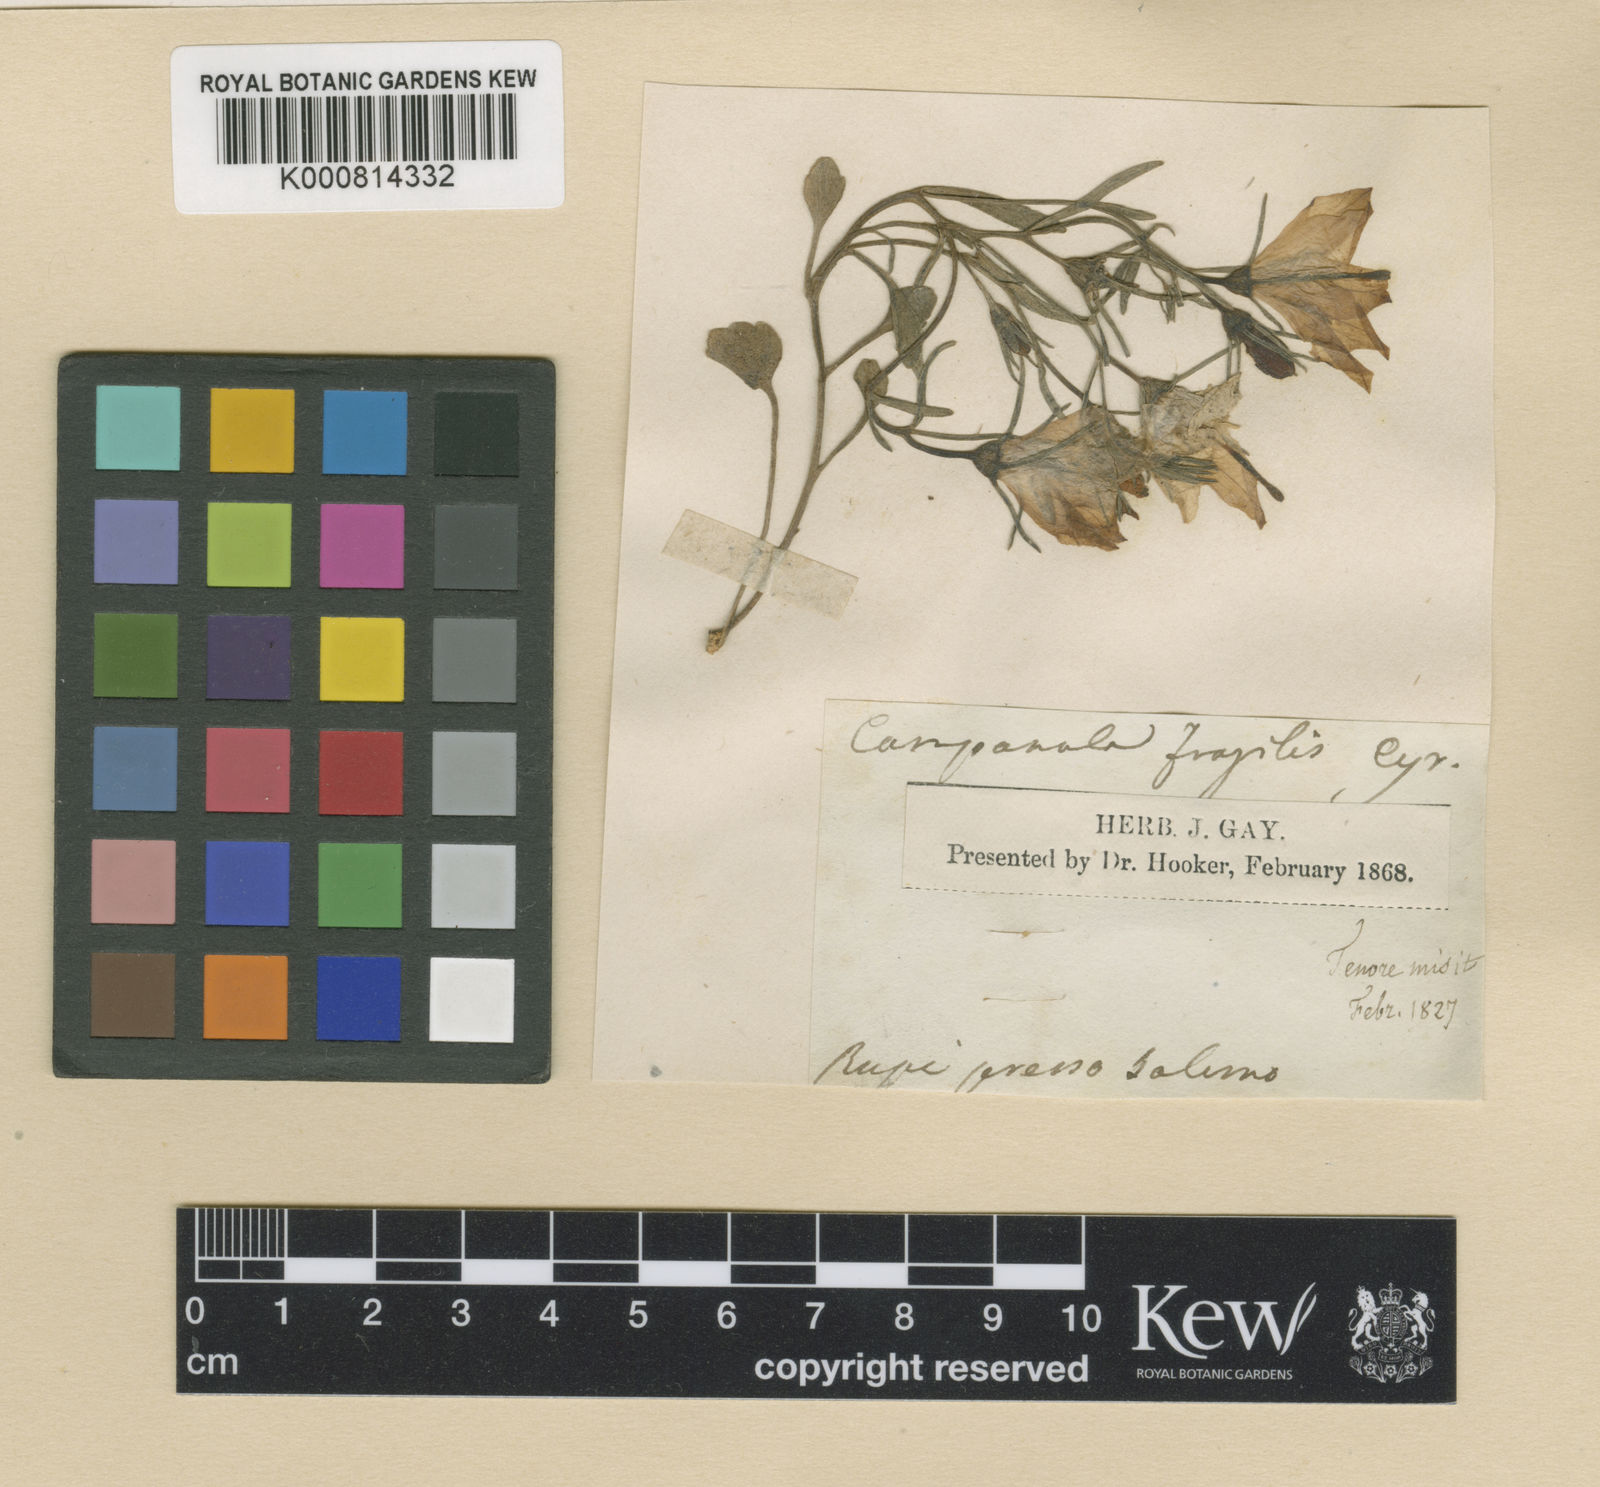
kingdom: Plantae
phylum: Tracheophyta
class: Magnoliopsida
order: Asterales
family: Campanulaceae
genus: Campanula
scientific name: Campanula fragilis
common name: Italian bellflower
